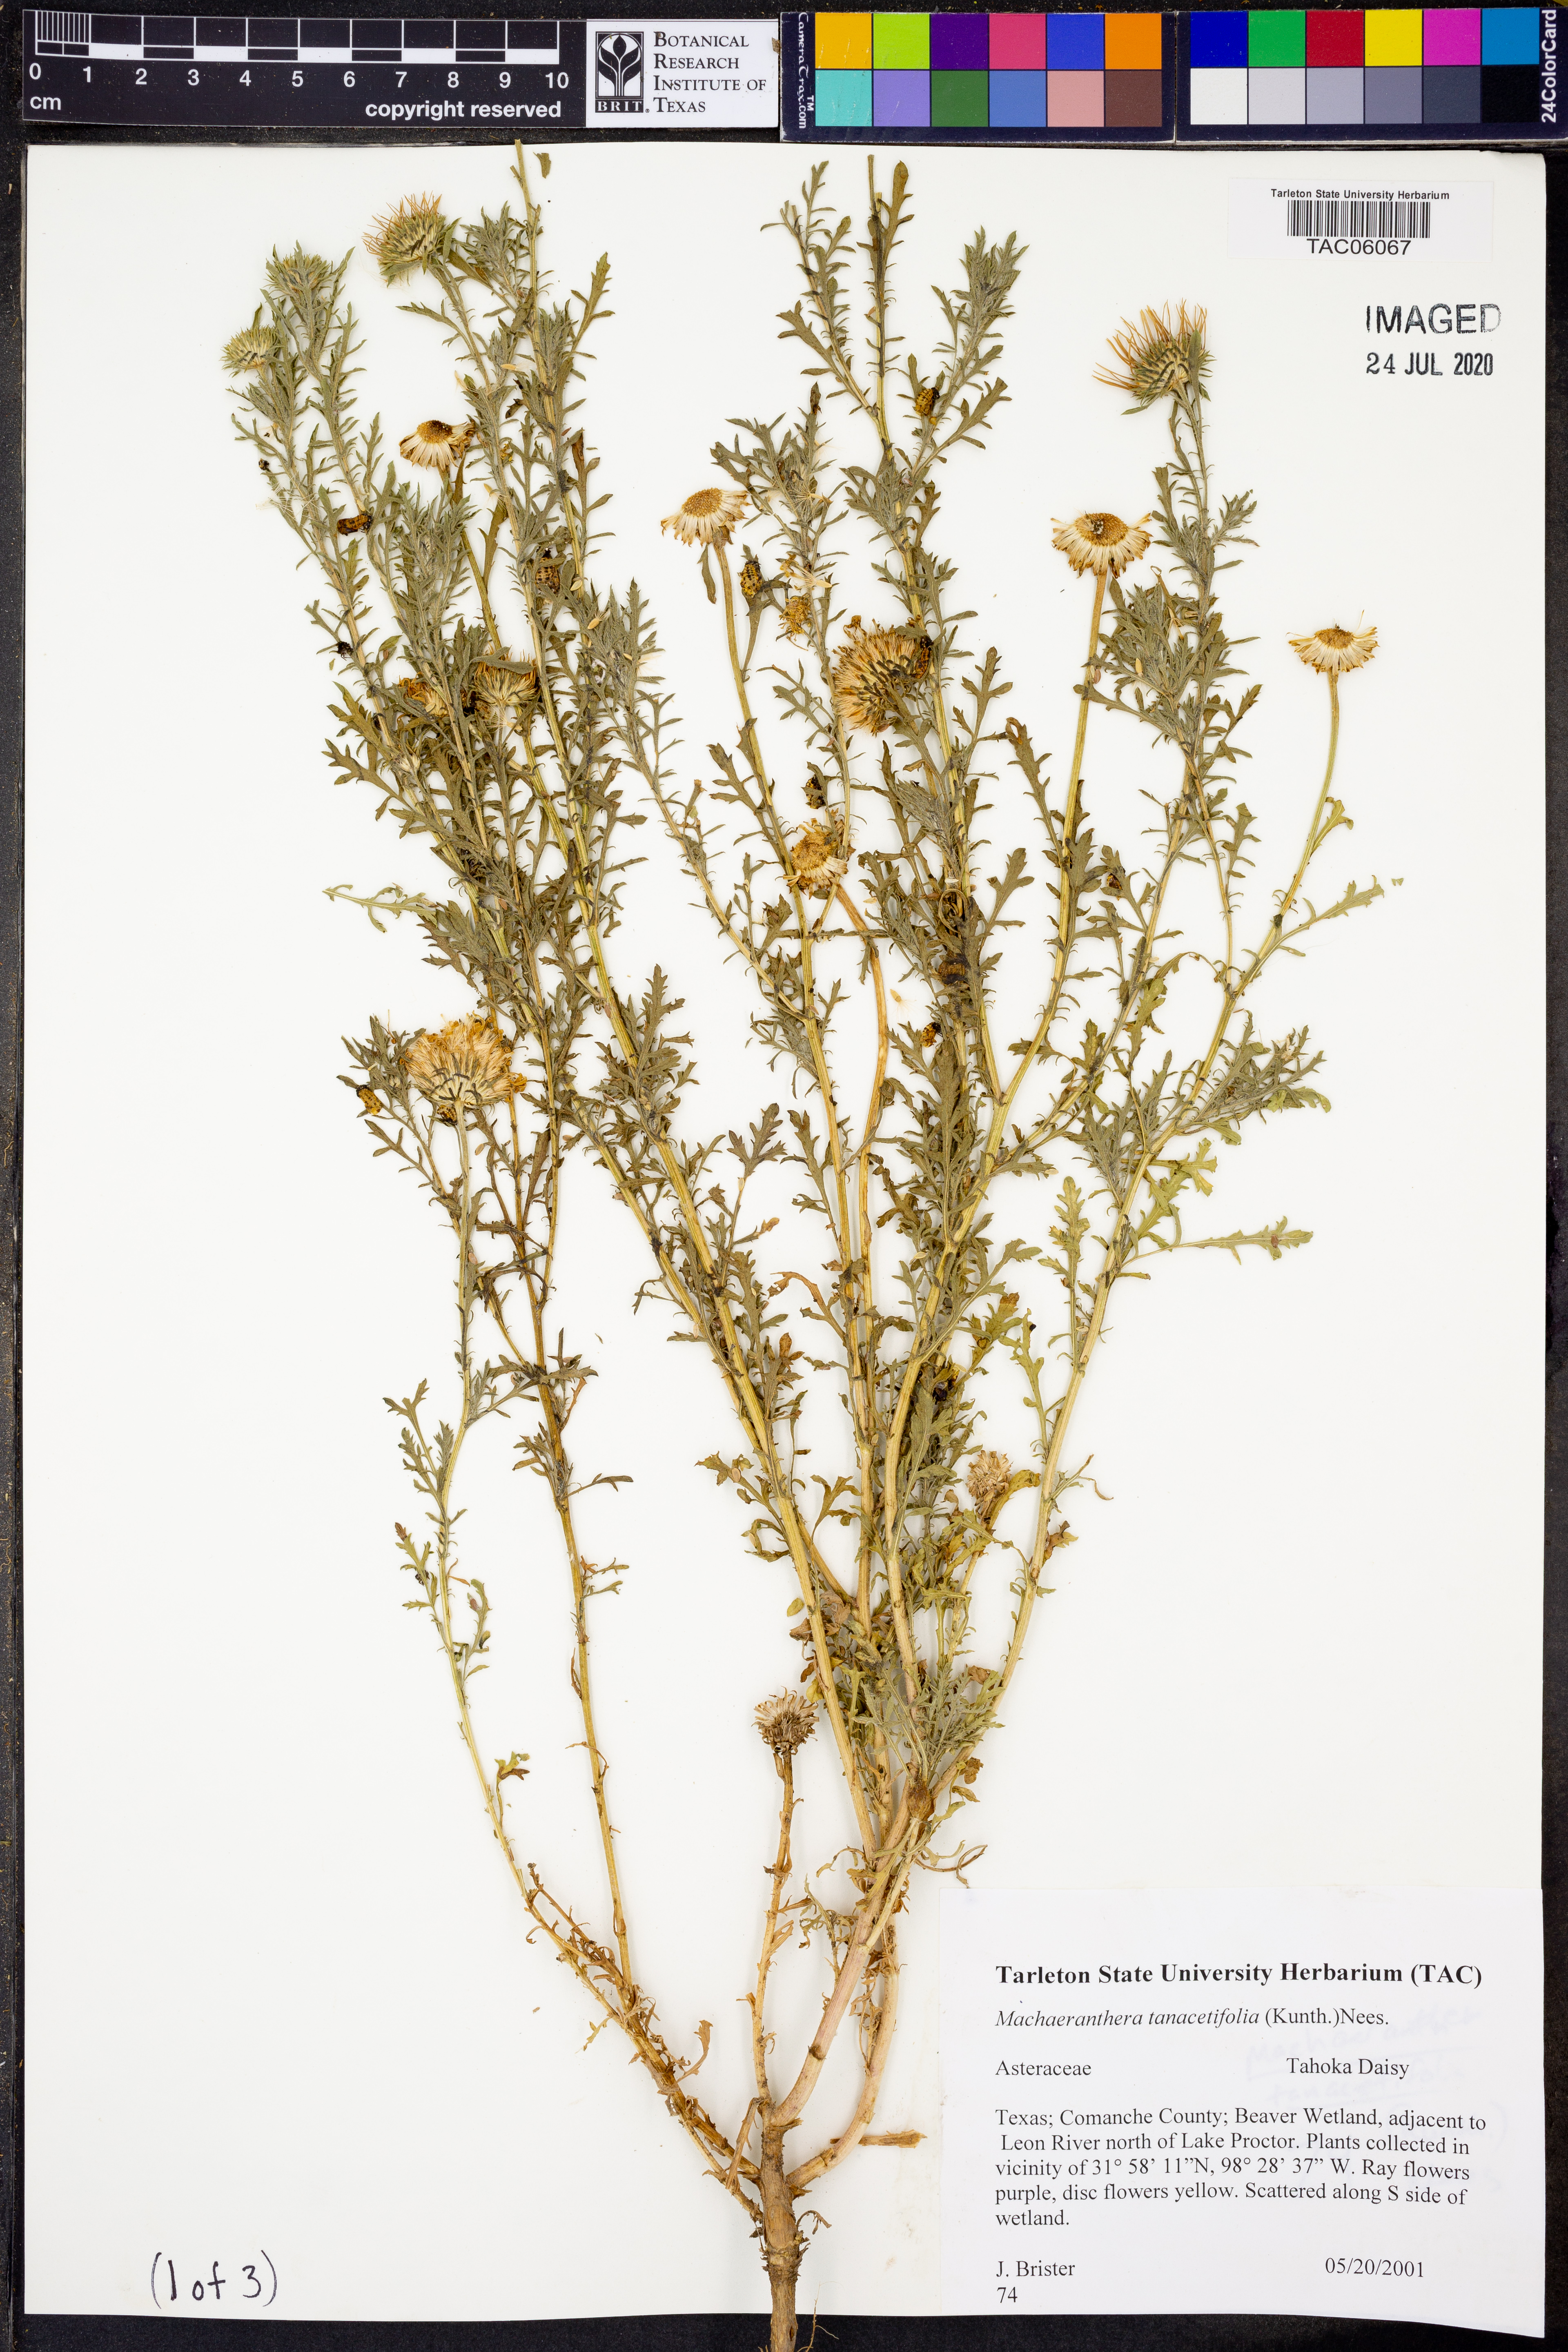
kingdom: Plantae
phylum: Tracheophyta
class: Magnoliopsida
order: Asterales
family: Asteraceae
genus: Machaeranthera
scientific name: Machaeranthera tanacetifolia
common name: Tansy-aster
